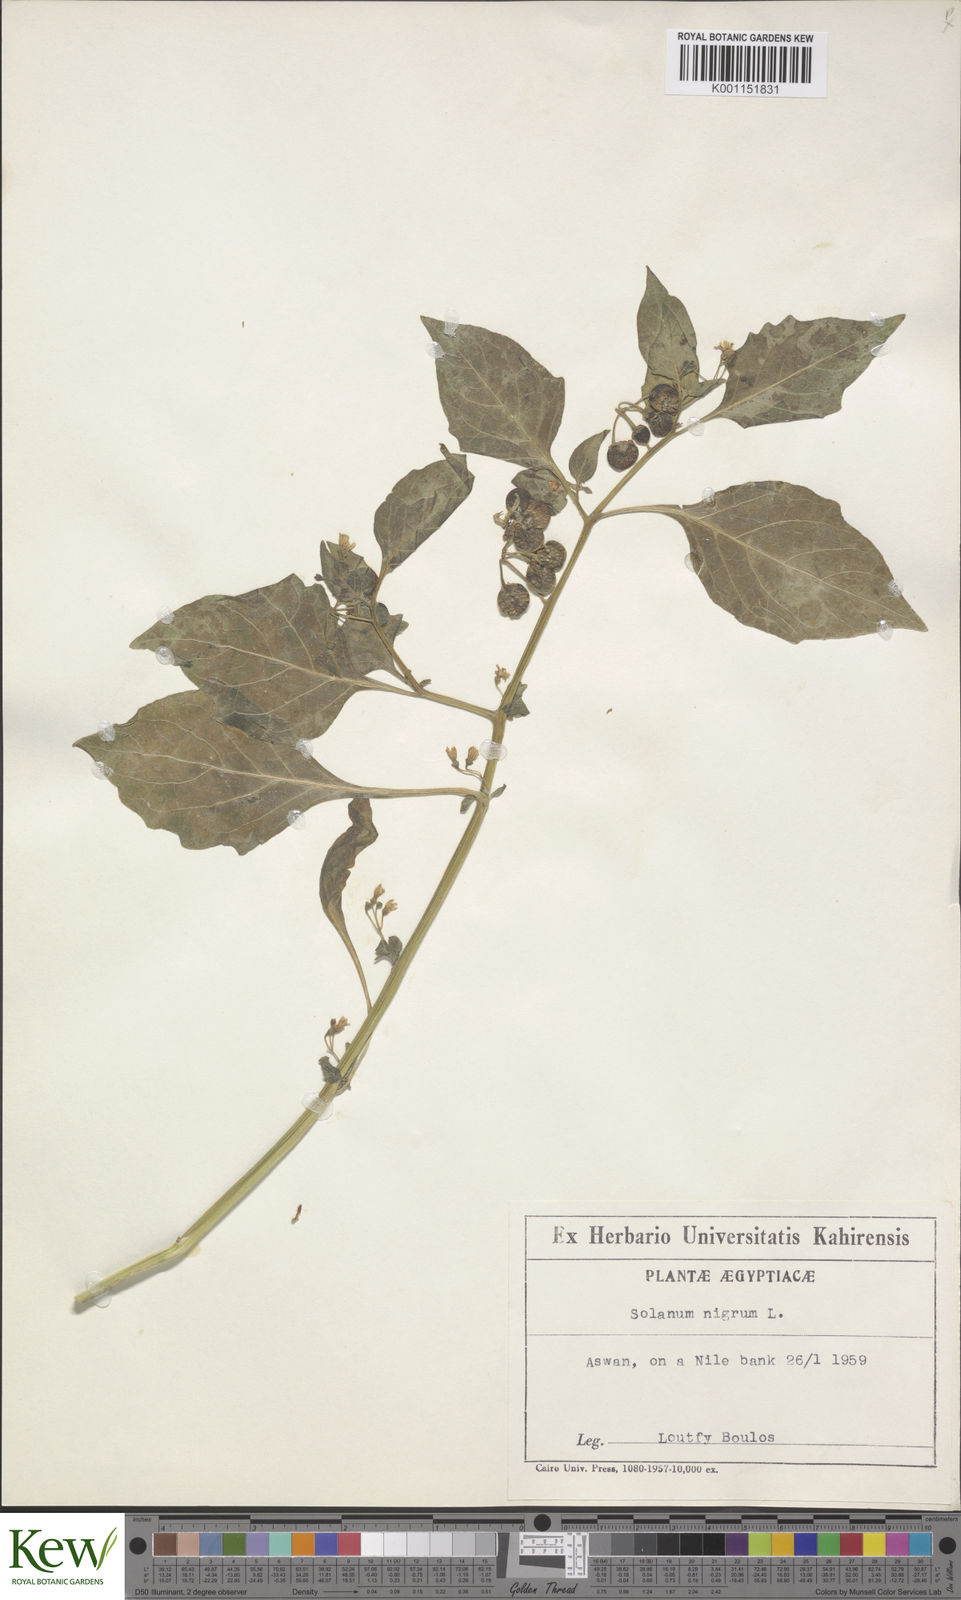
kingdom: Plantae
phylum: Tracheophyta
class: Magnoliopsida
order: Solanales
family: Solanaceae
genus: Solanum
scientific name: Solanum nigrum
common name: Black nightshade
